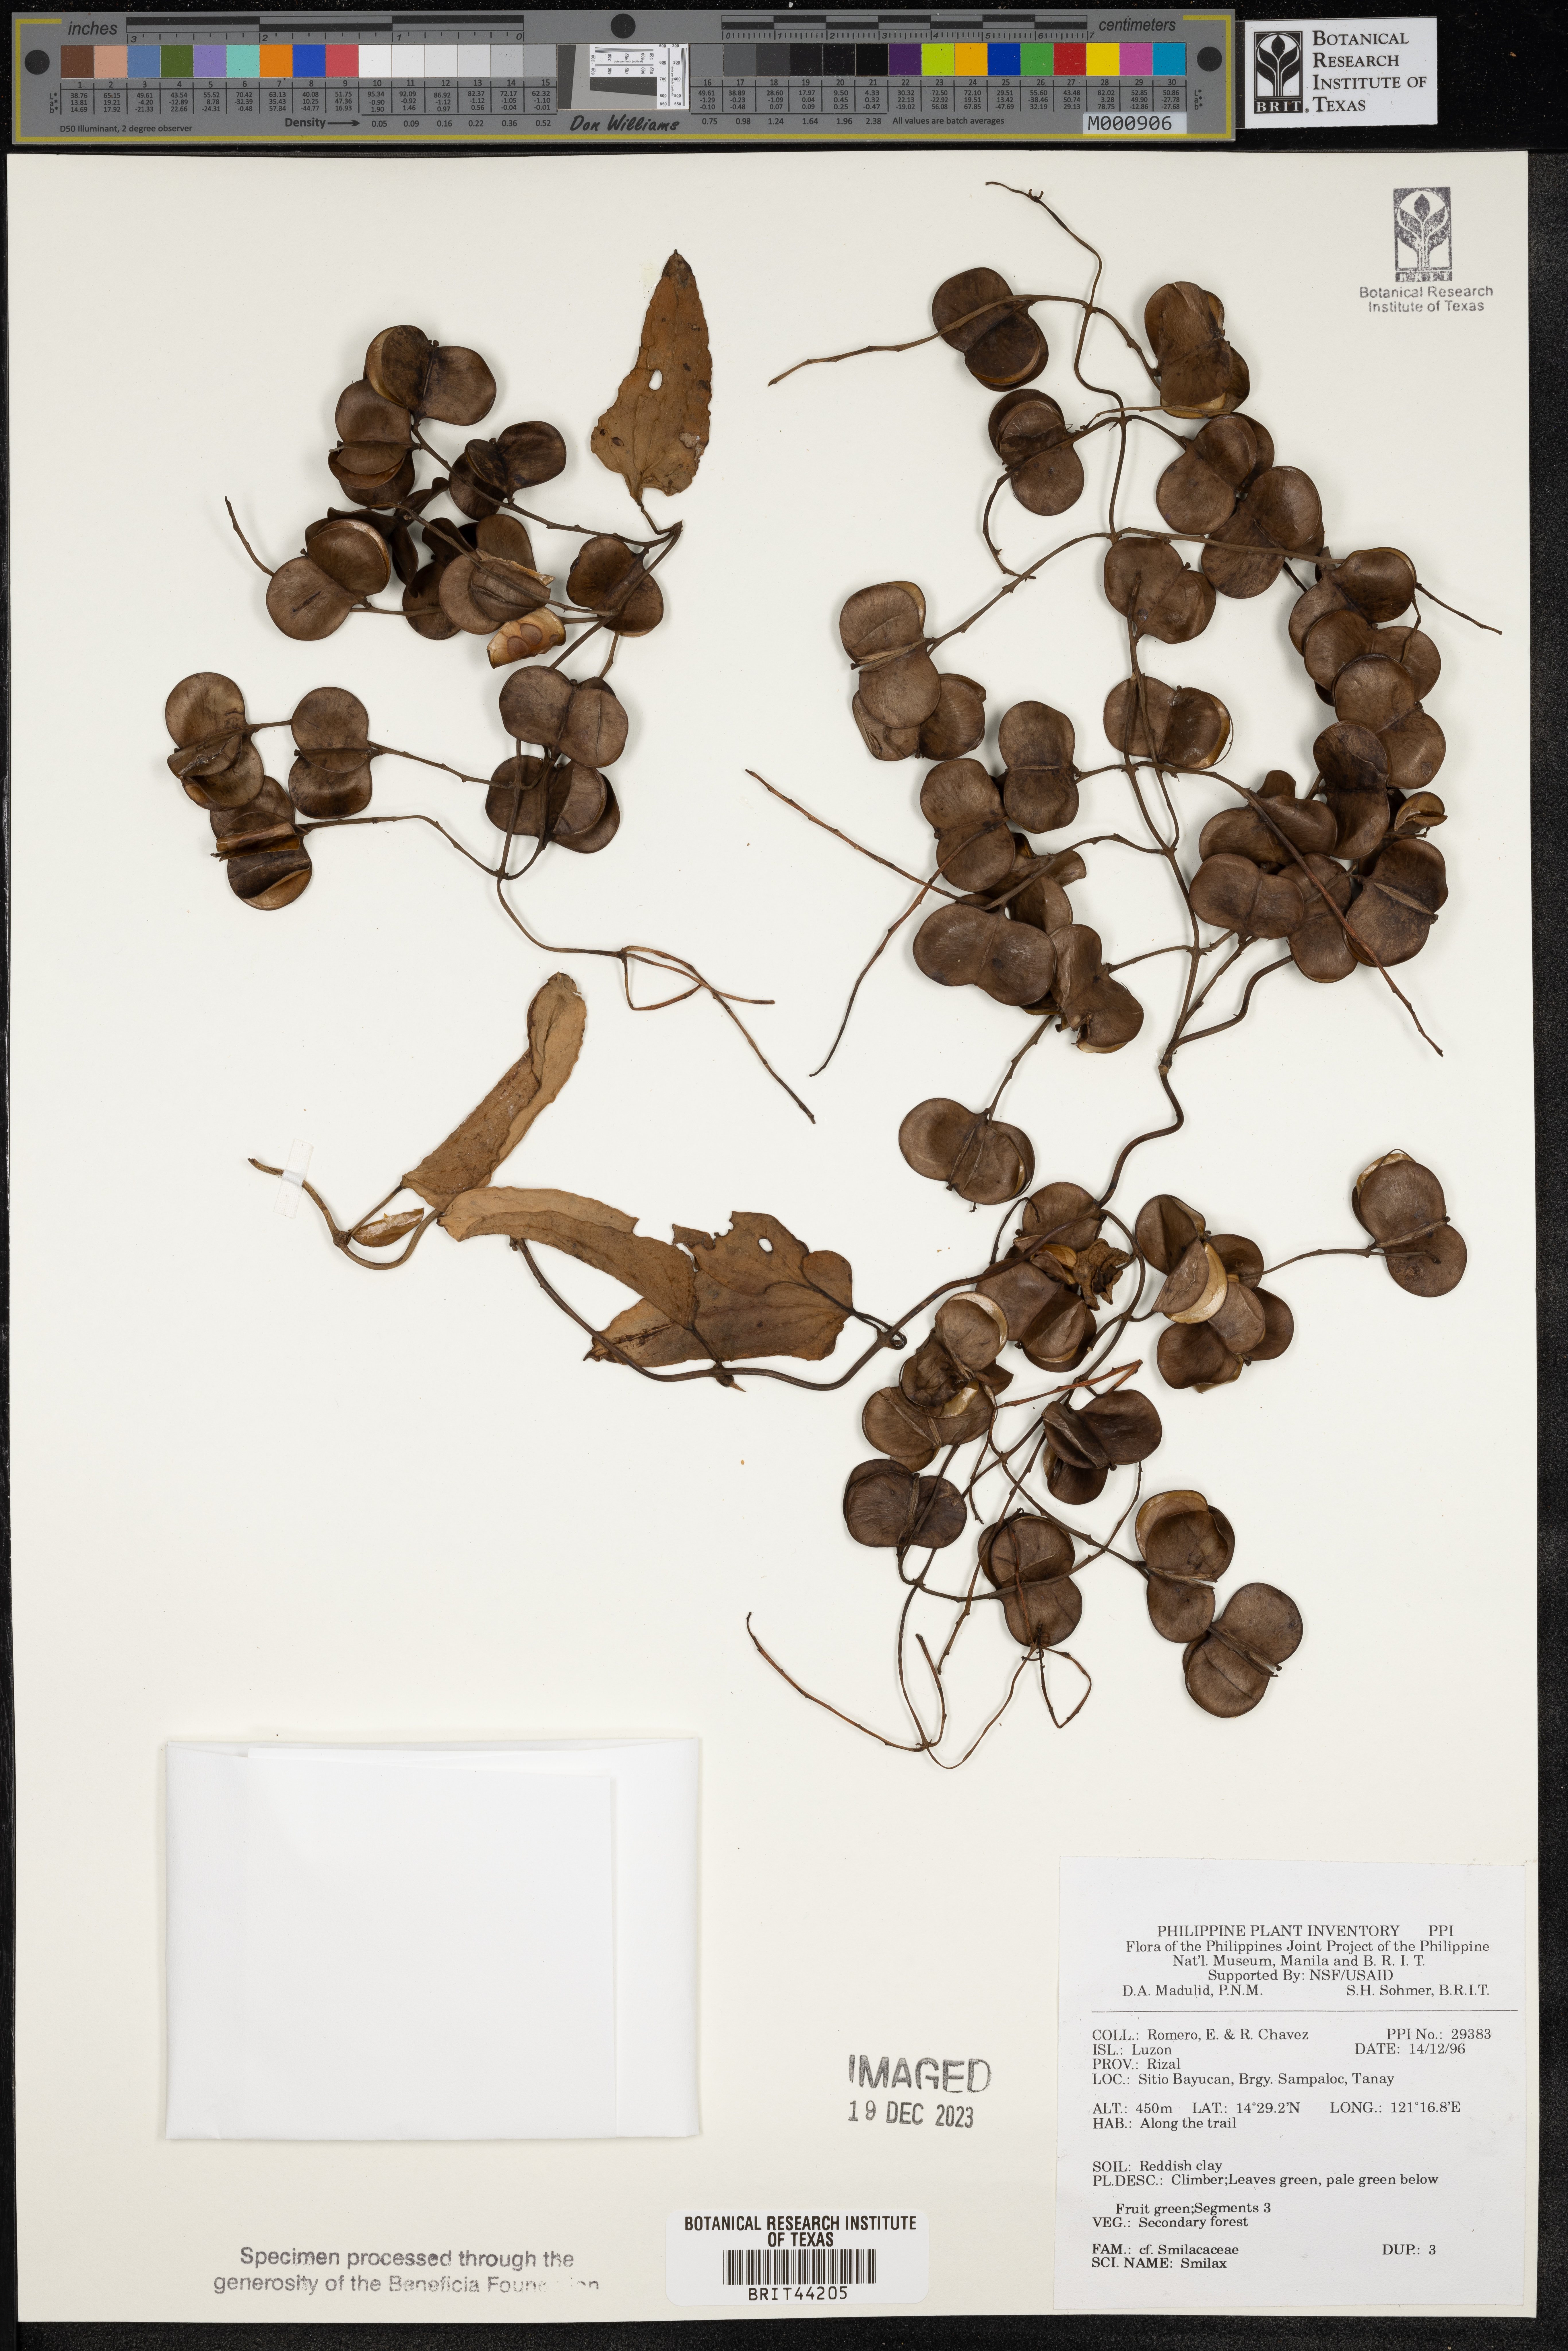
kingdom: Plantae
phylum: Tracheophyta
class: Liliopsida
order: Liliales
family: Smilacaceae
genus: Smilax
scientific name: Smilax
